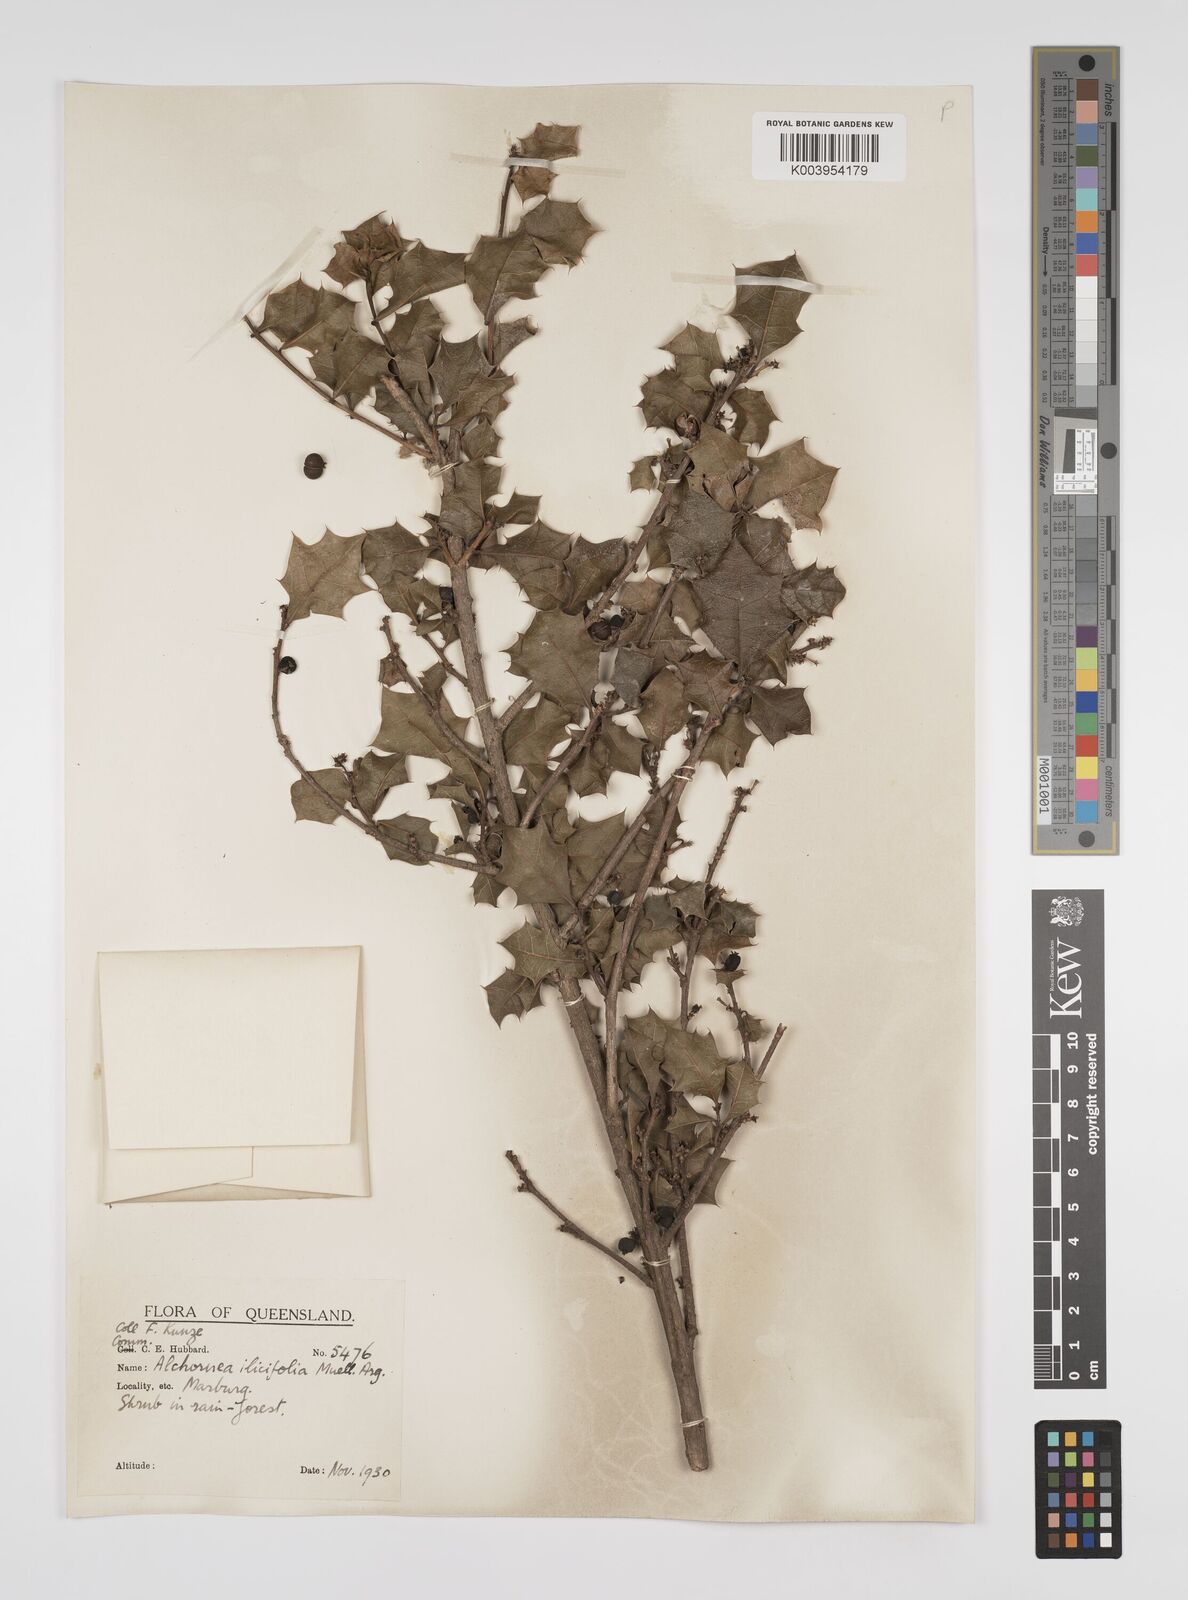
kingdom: Plantae
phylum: Tracheophyta
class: Magnoliopsida
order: Malpighiales
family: Euphorbiaceae
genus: Alchornea
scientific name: Alchornea ilicifolia
